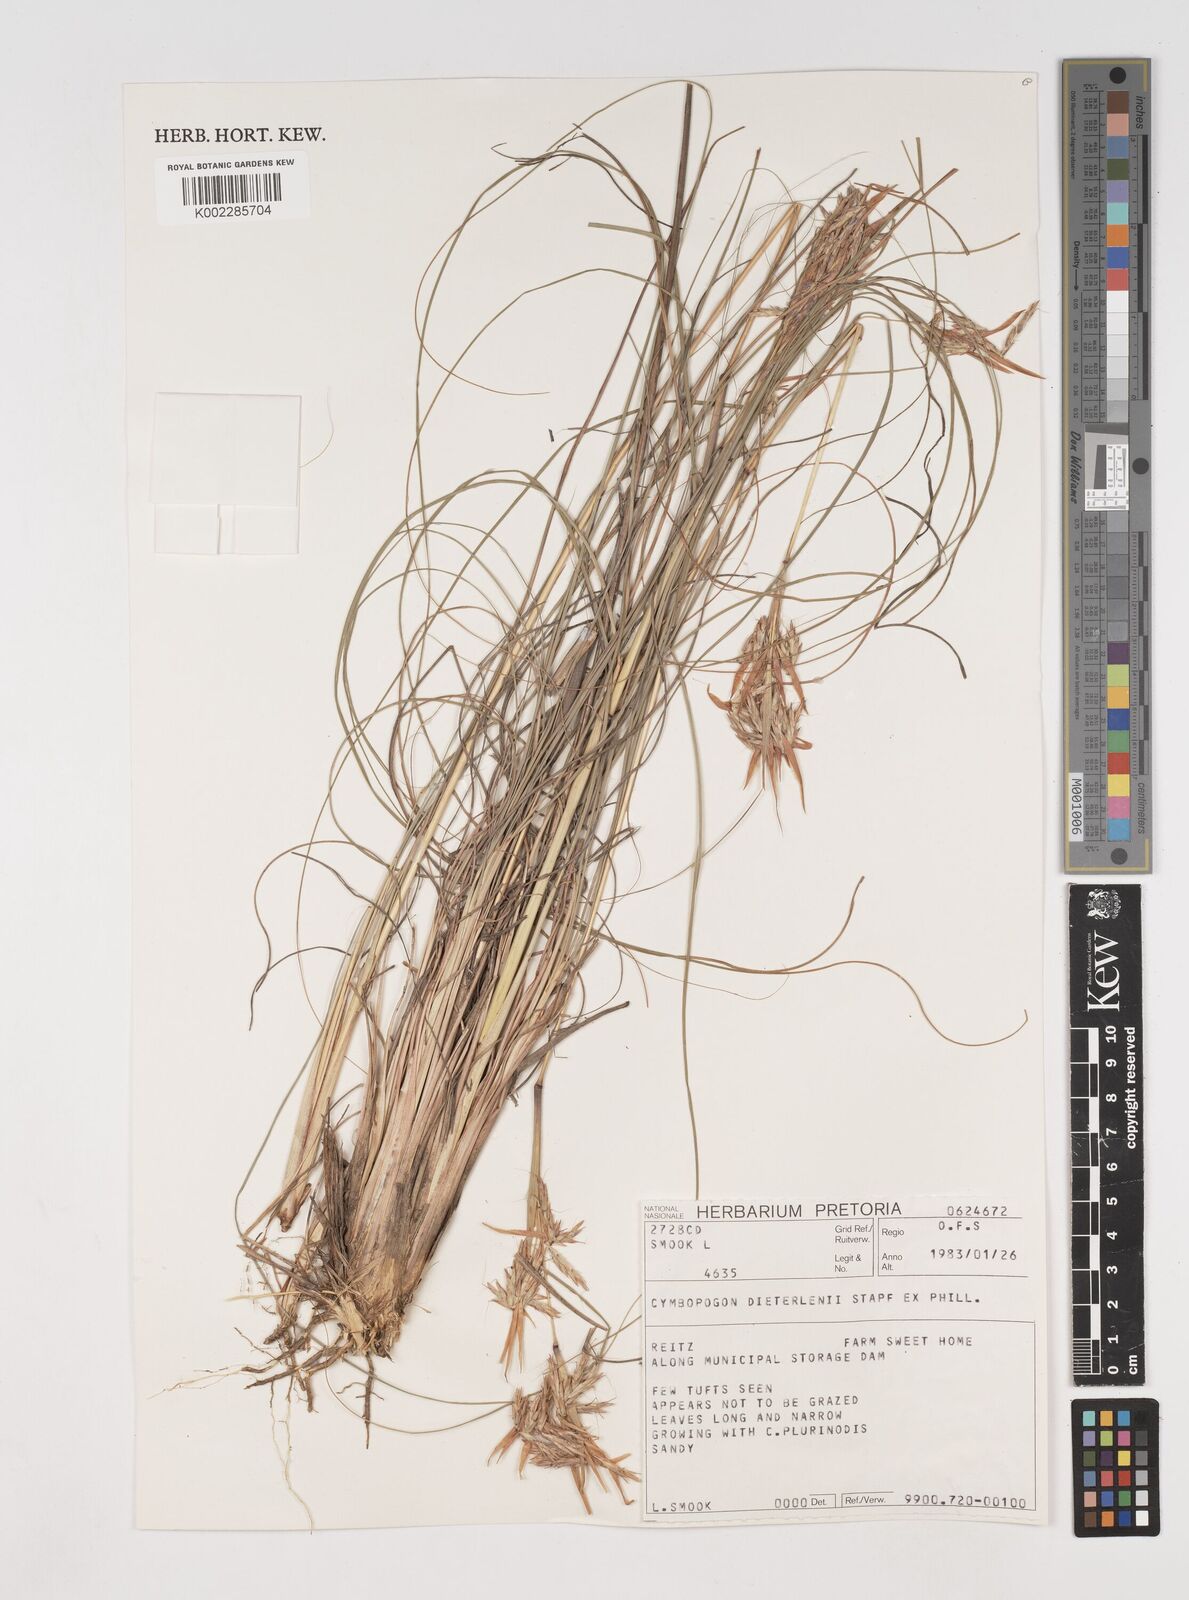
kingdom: Plantae
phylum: Tracheophyta
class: Liliopsida
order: Poales
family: Poaceae
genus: Cymbopogon
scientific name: Cymbopogon dieterlenii
